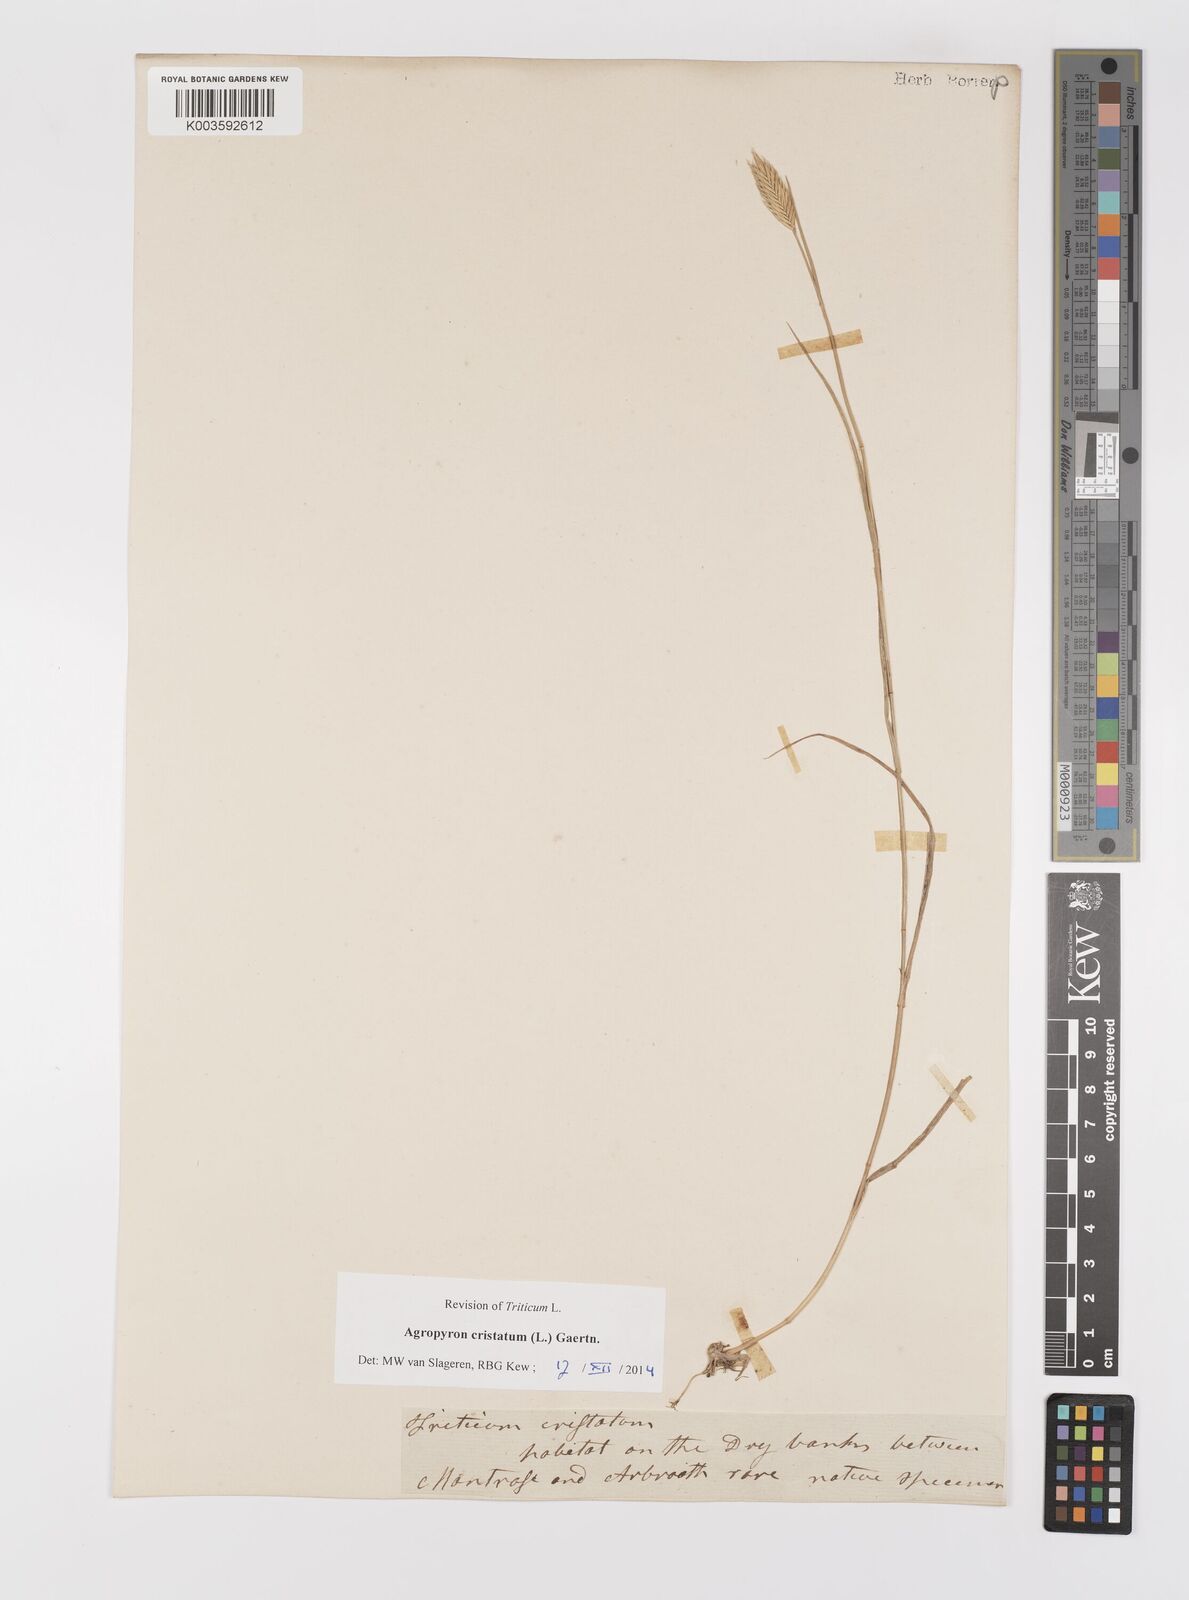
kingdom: Plantae
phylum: Tracheophyta
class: Liliopsida
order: Poales
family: Poaceae
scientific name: Poaceae
